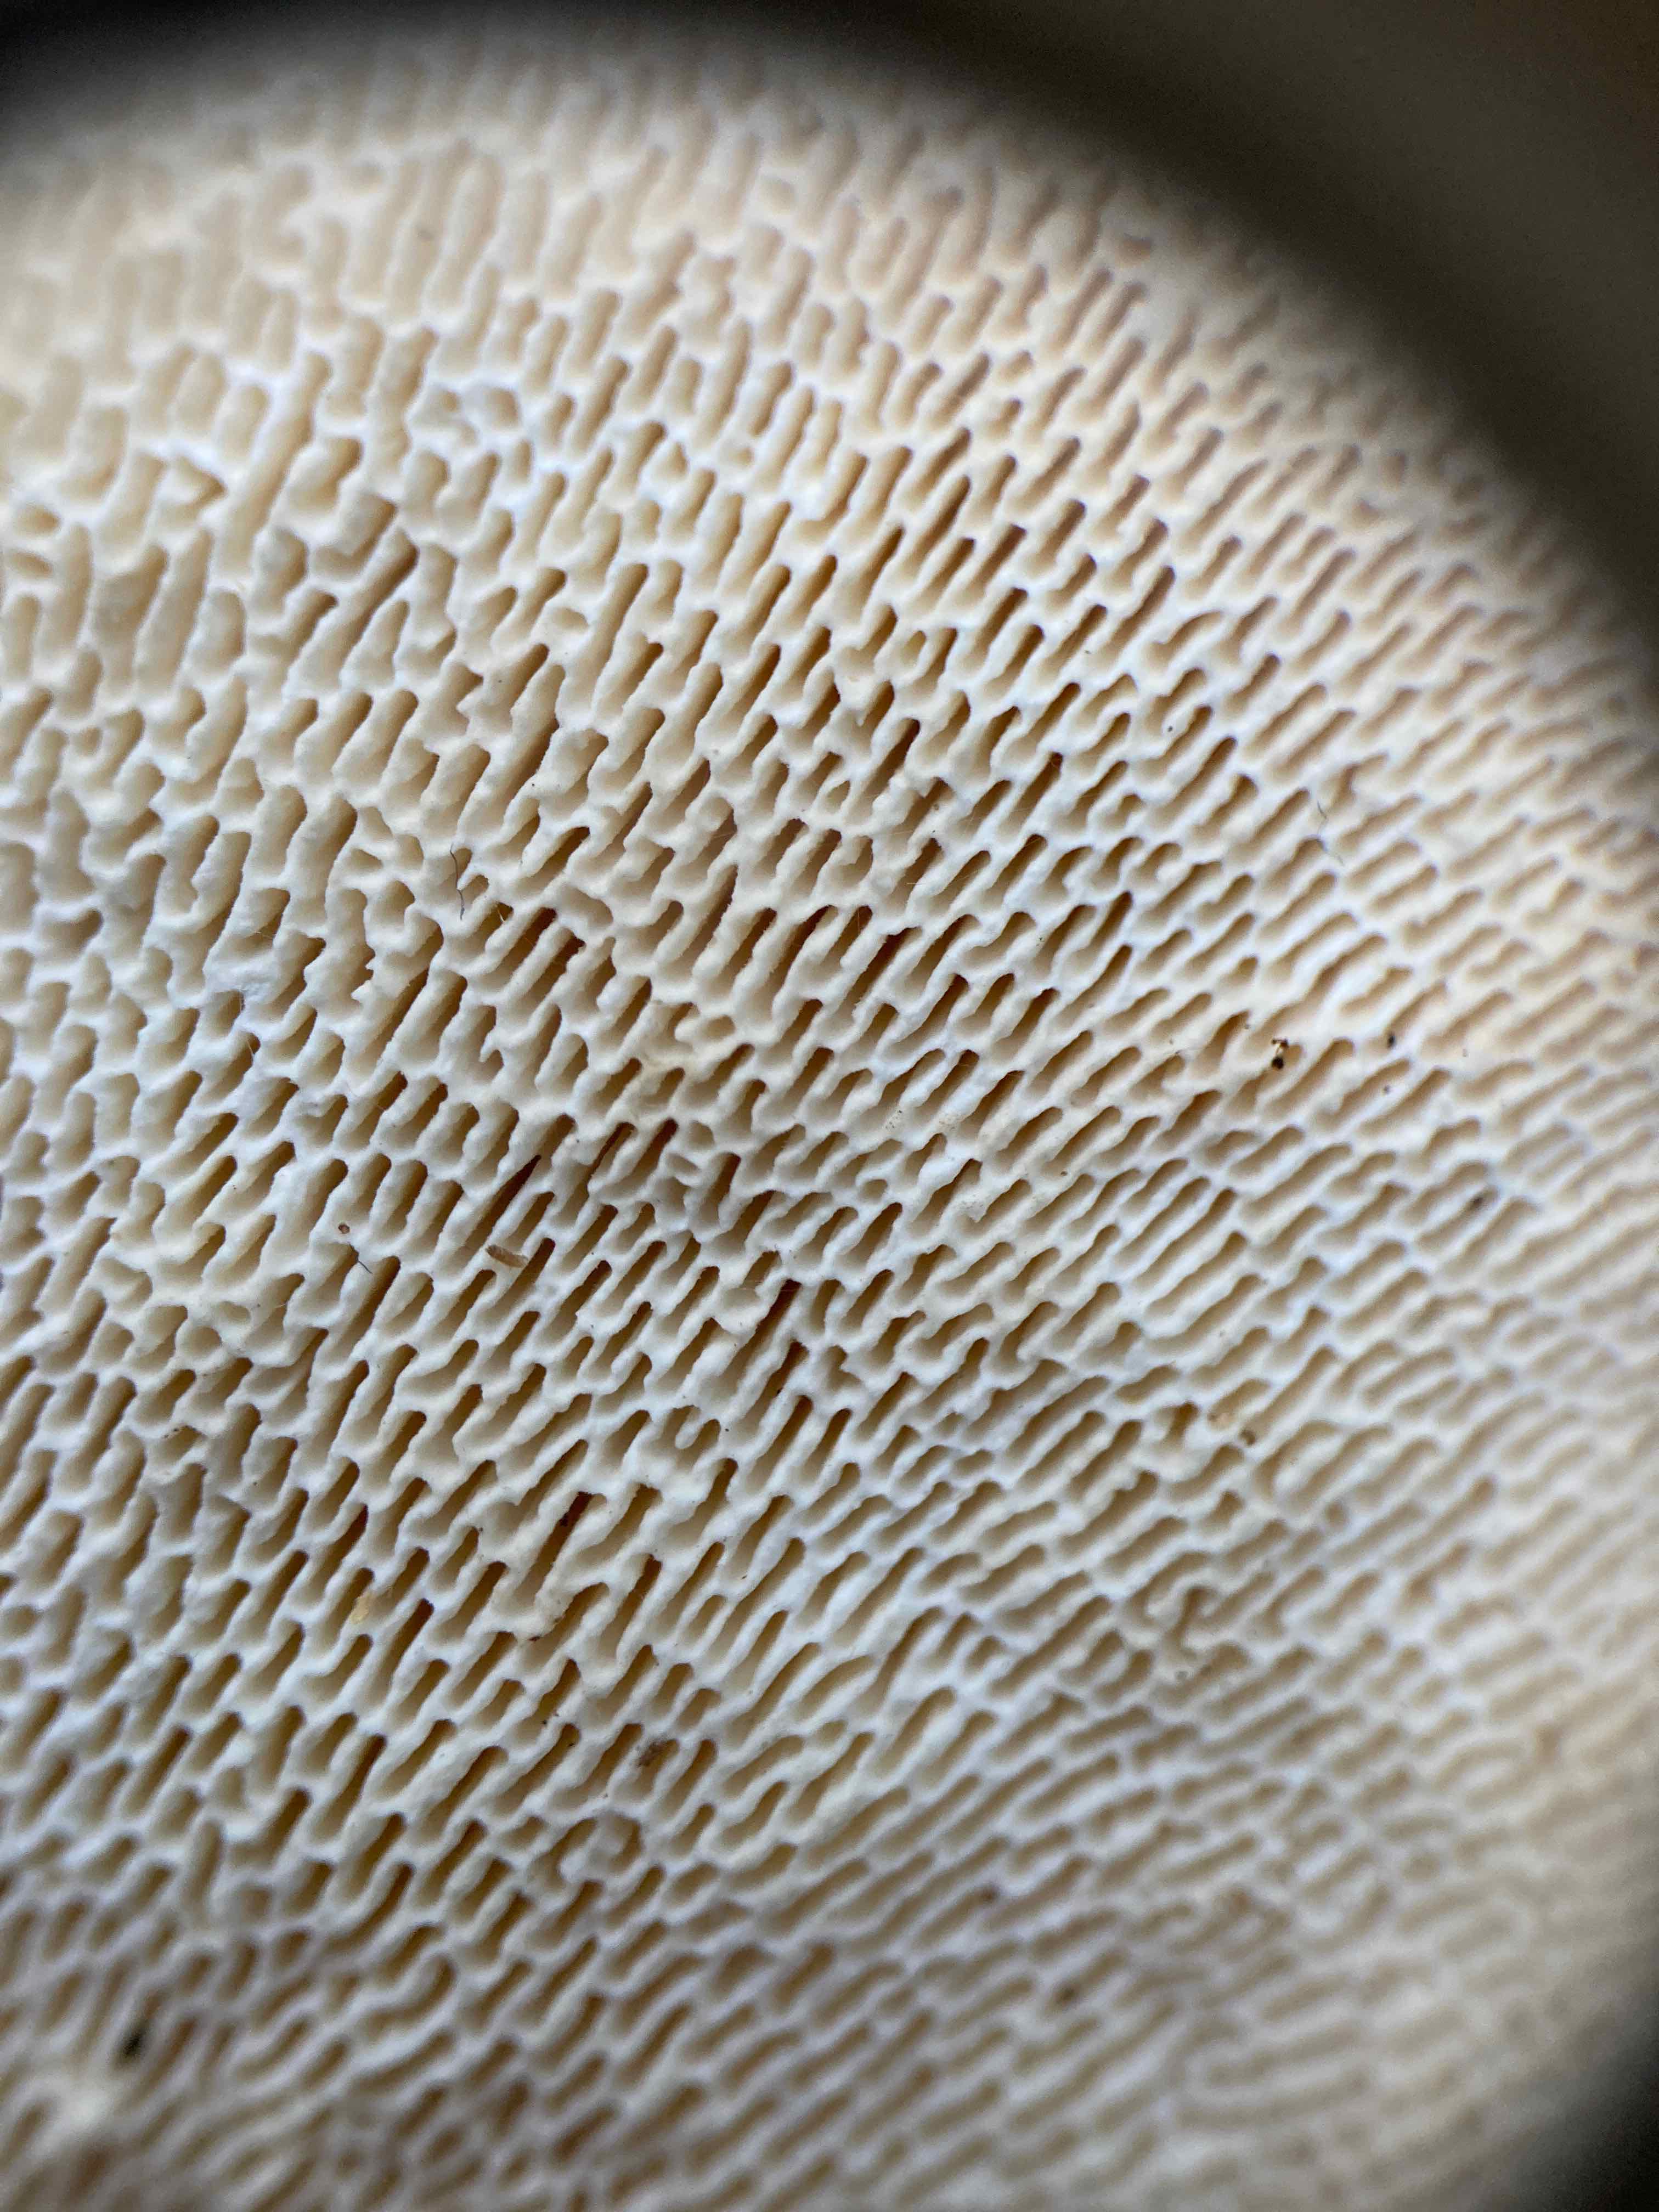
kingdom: Fungi
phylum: Basidiomycota
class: Agaricomycetes
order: Polyporales
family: Polyporaceae
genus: Trametes
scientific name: Trametes gibbosa
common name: puklet læderporesvamp
